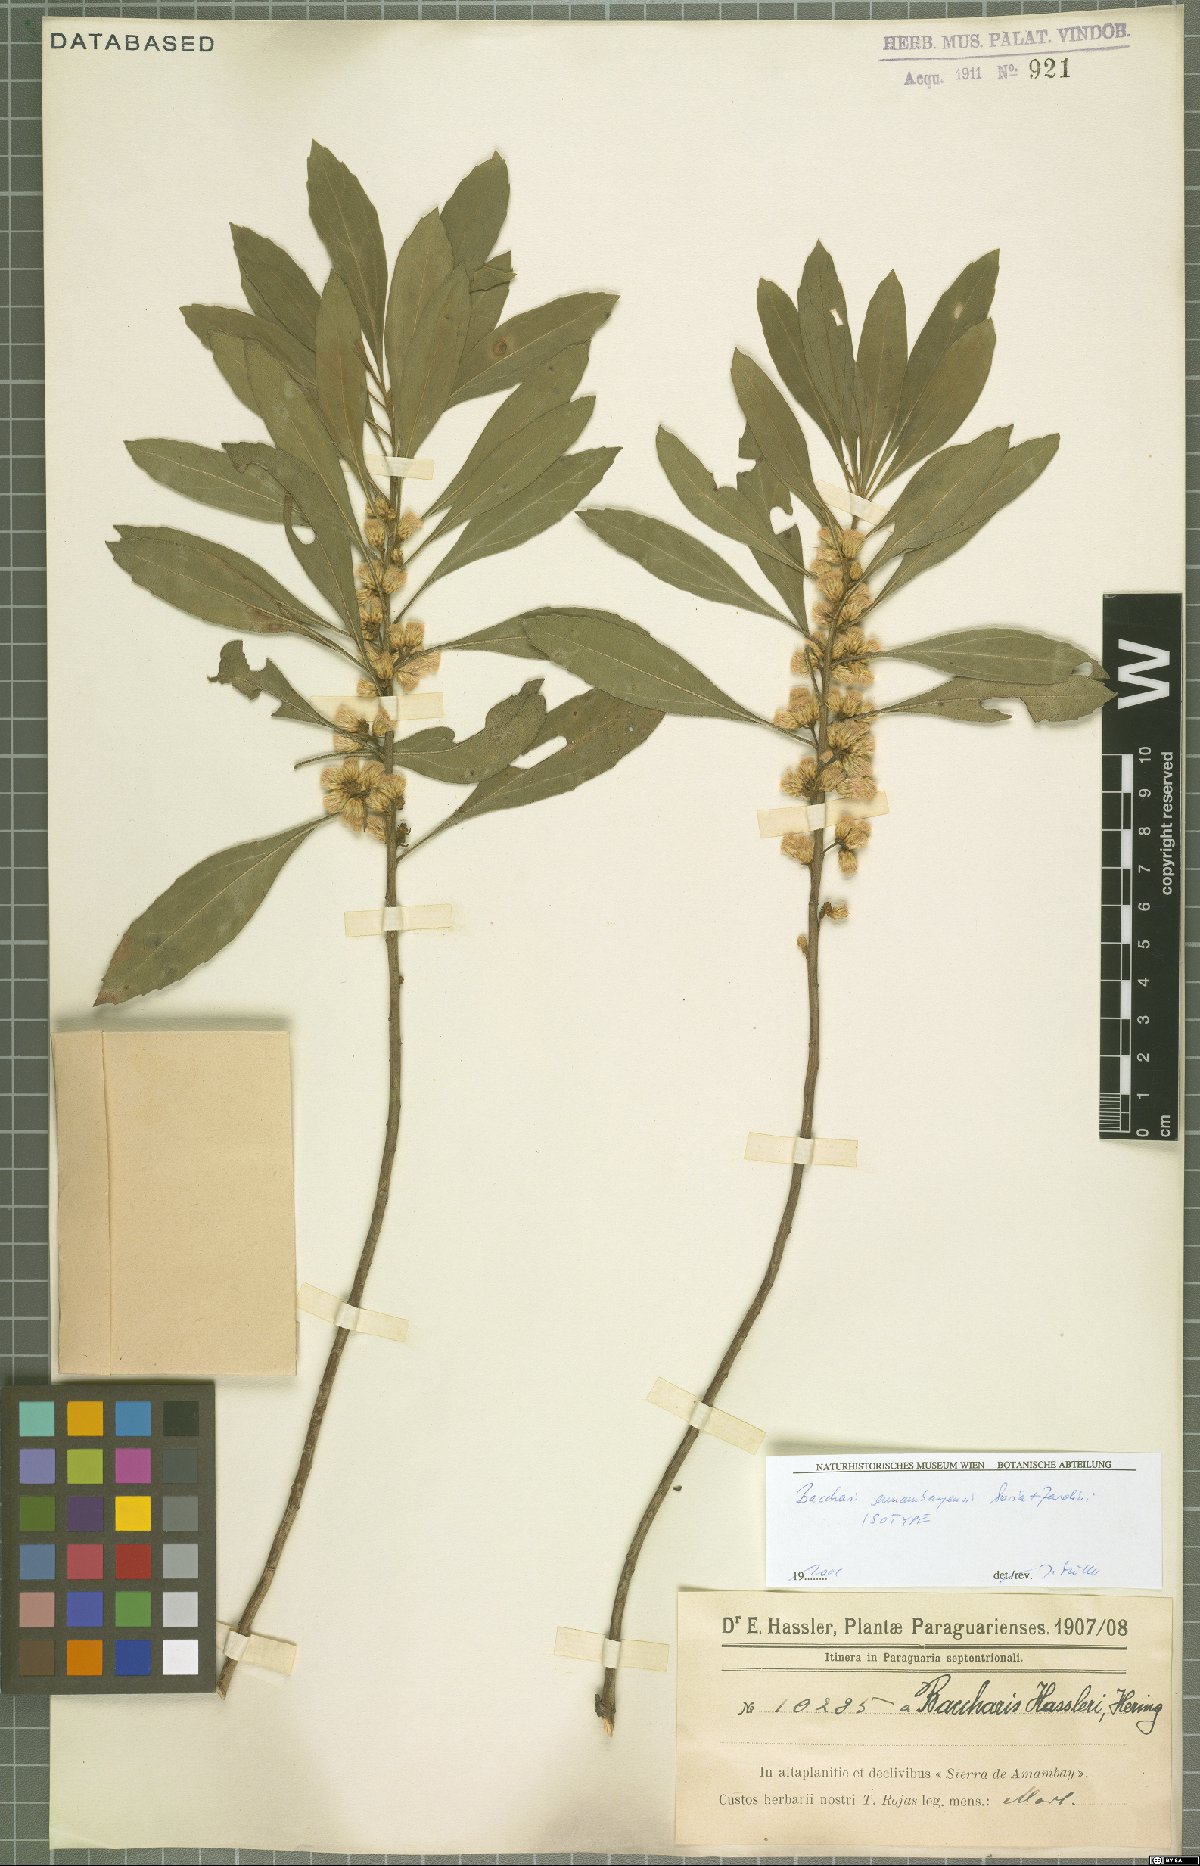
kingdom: Plantae
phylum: Tracheophyta
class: Magnoliopsida
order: Asterales
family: Asteraceae
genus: Baccharis
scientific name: Baccharis amambayensis
